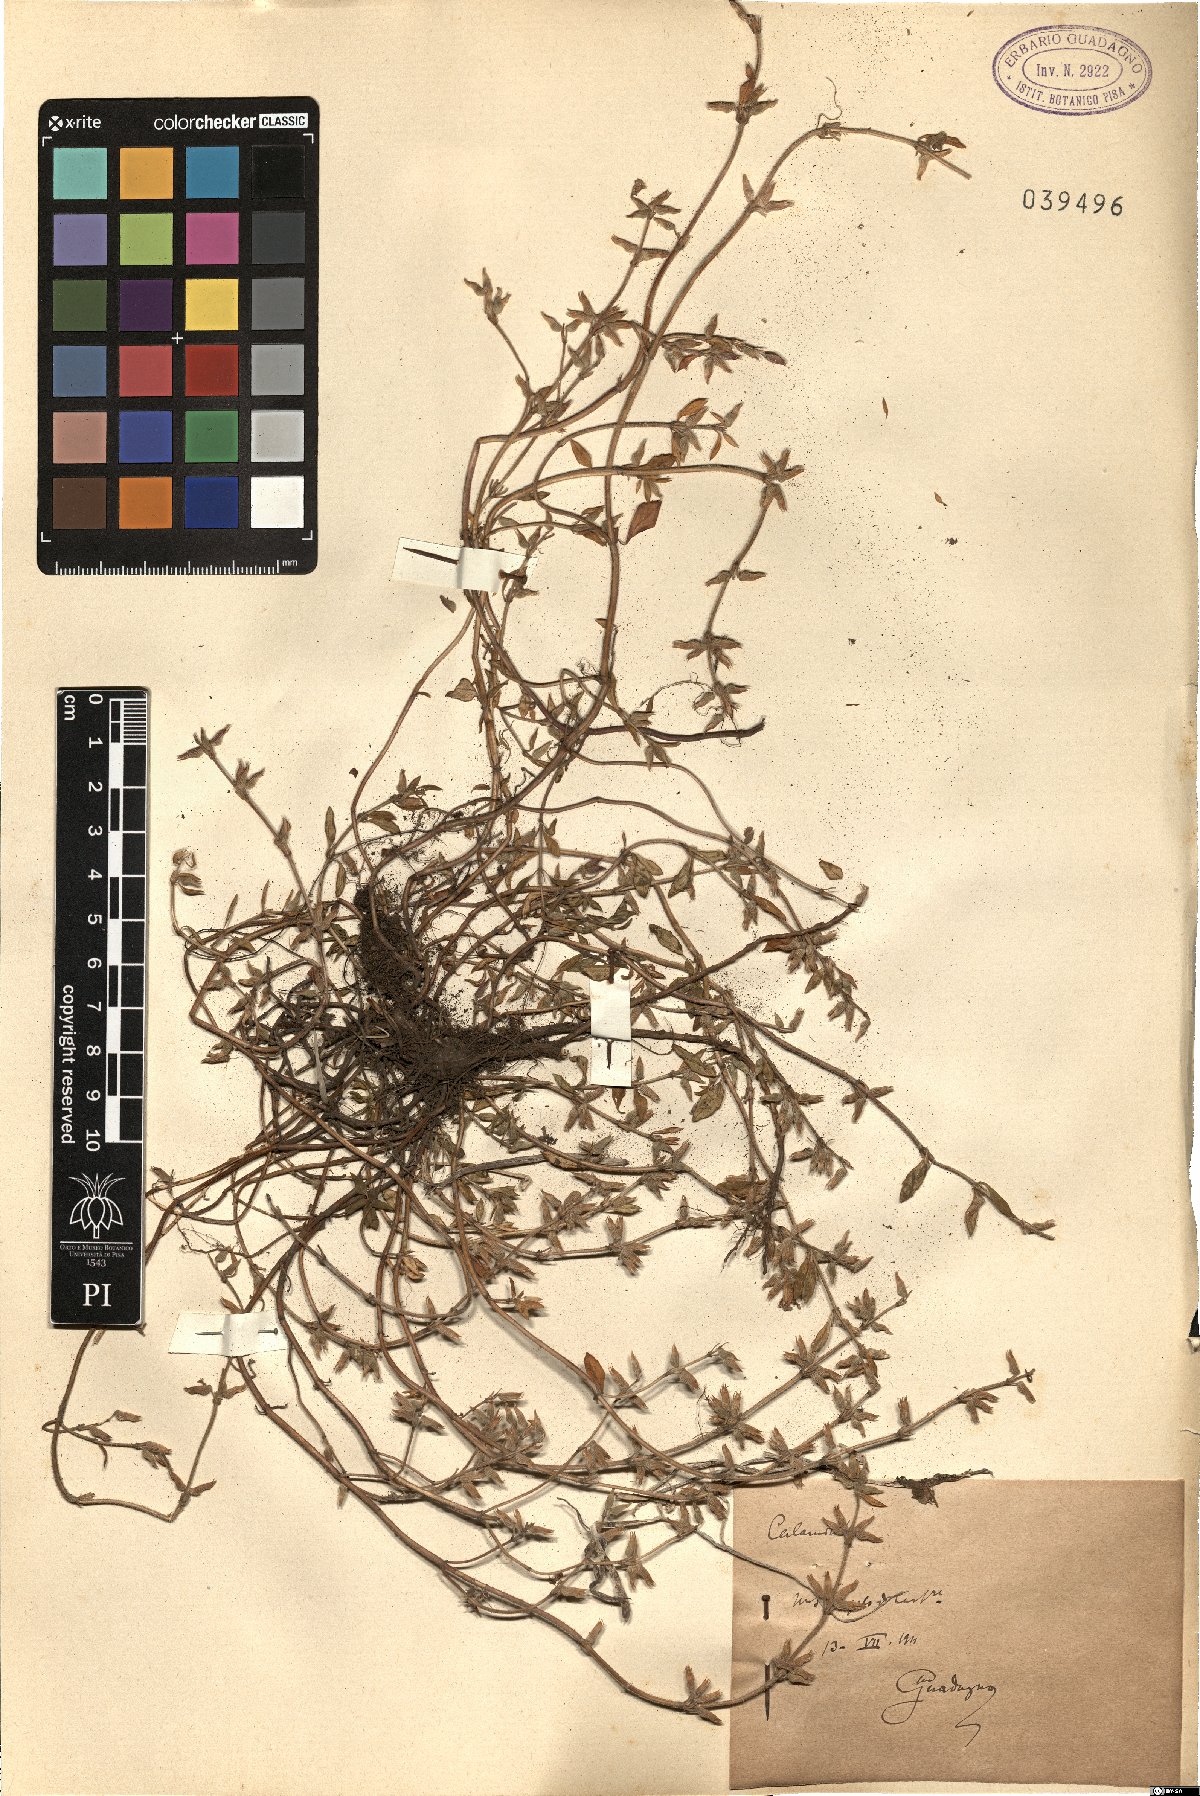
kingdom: Plantae
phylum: Tracheophyta
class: Magnoliopsida
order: Lamiales
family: Lamiaceae
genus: Calamintha
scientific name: Calamintha
